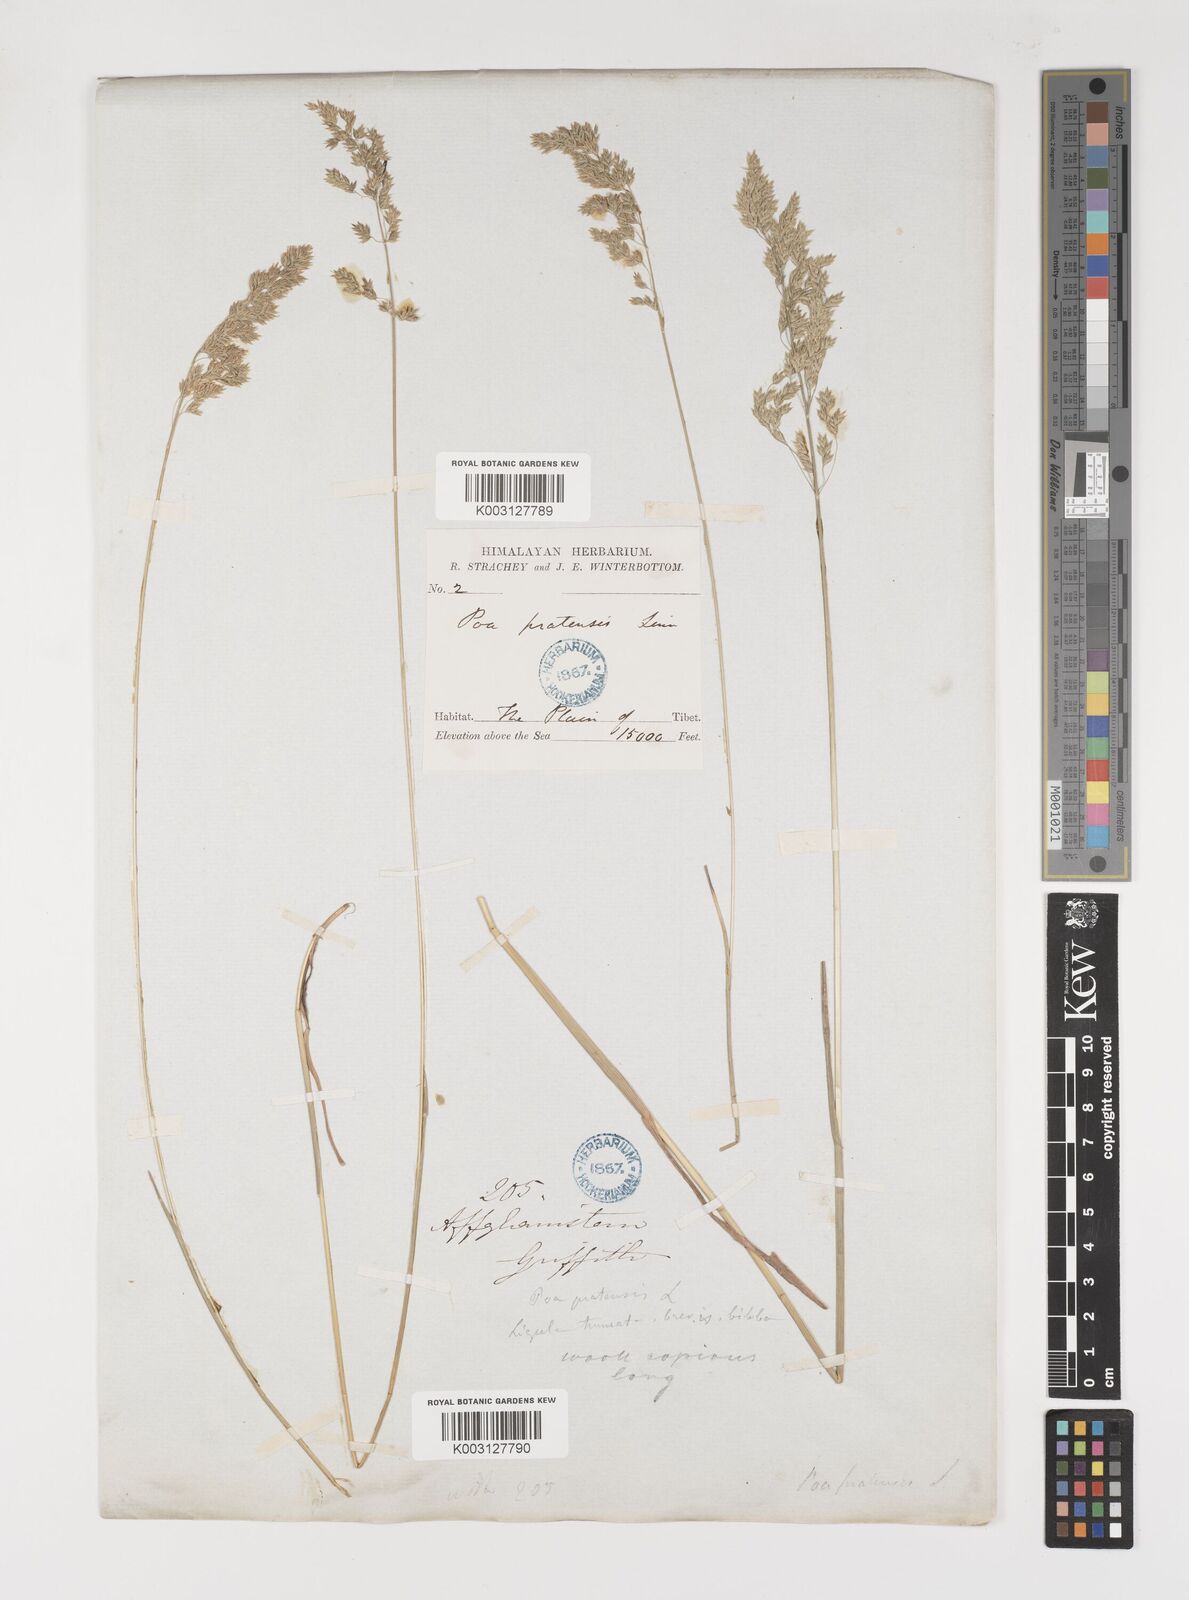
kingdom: Plantae
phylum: Tracheophyta
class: Liliopsida
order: Poales
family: Poaceae
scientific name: Poaceae
